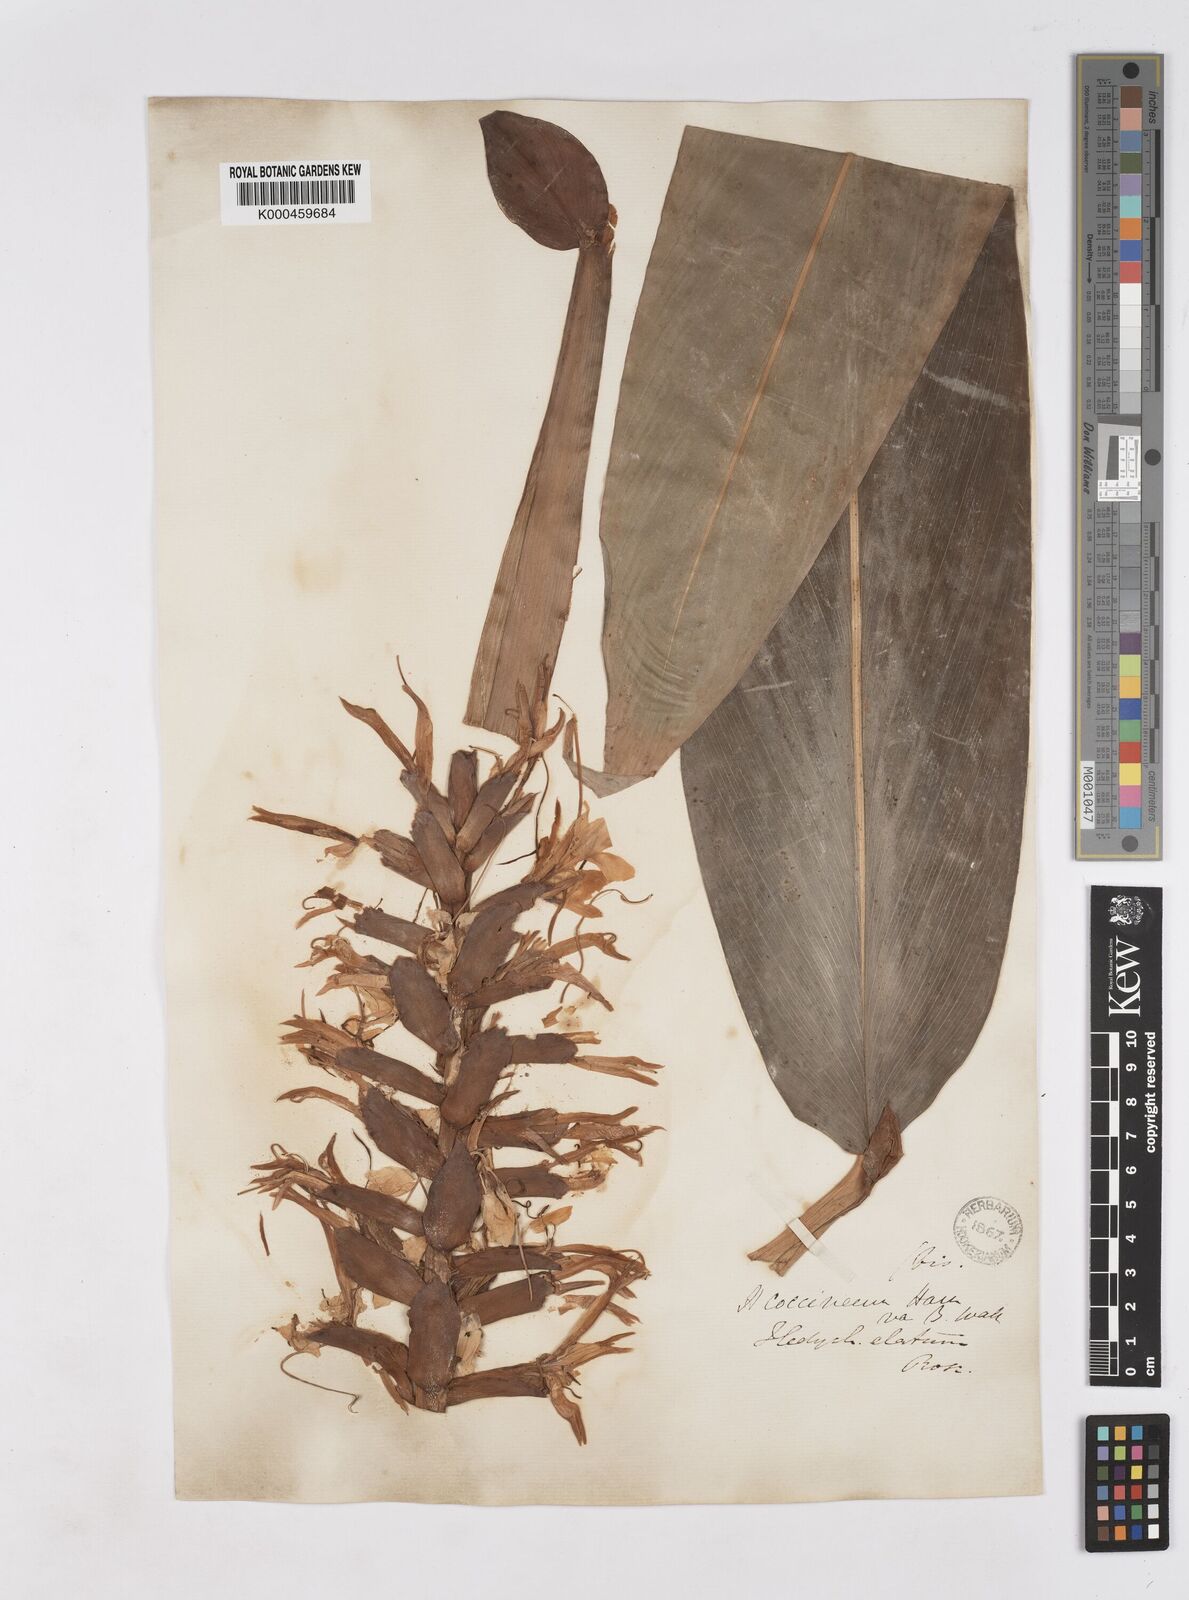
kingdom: Plantae
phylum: Tracheophyta
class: Liliopsida
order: Zingiberales
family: Zingiberaceae
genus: Hedychium
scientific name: Hedychium elatum
